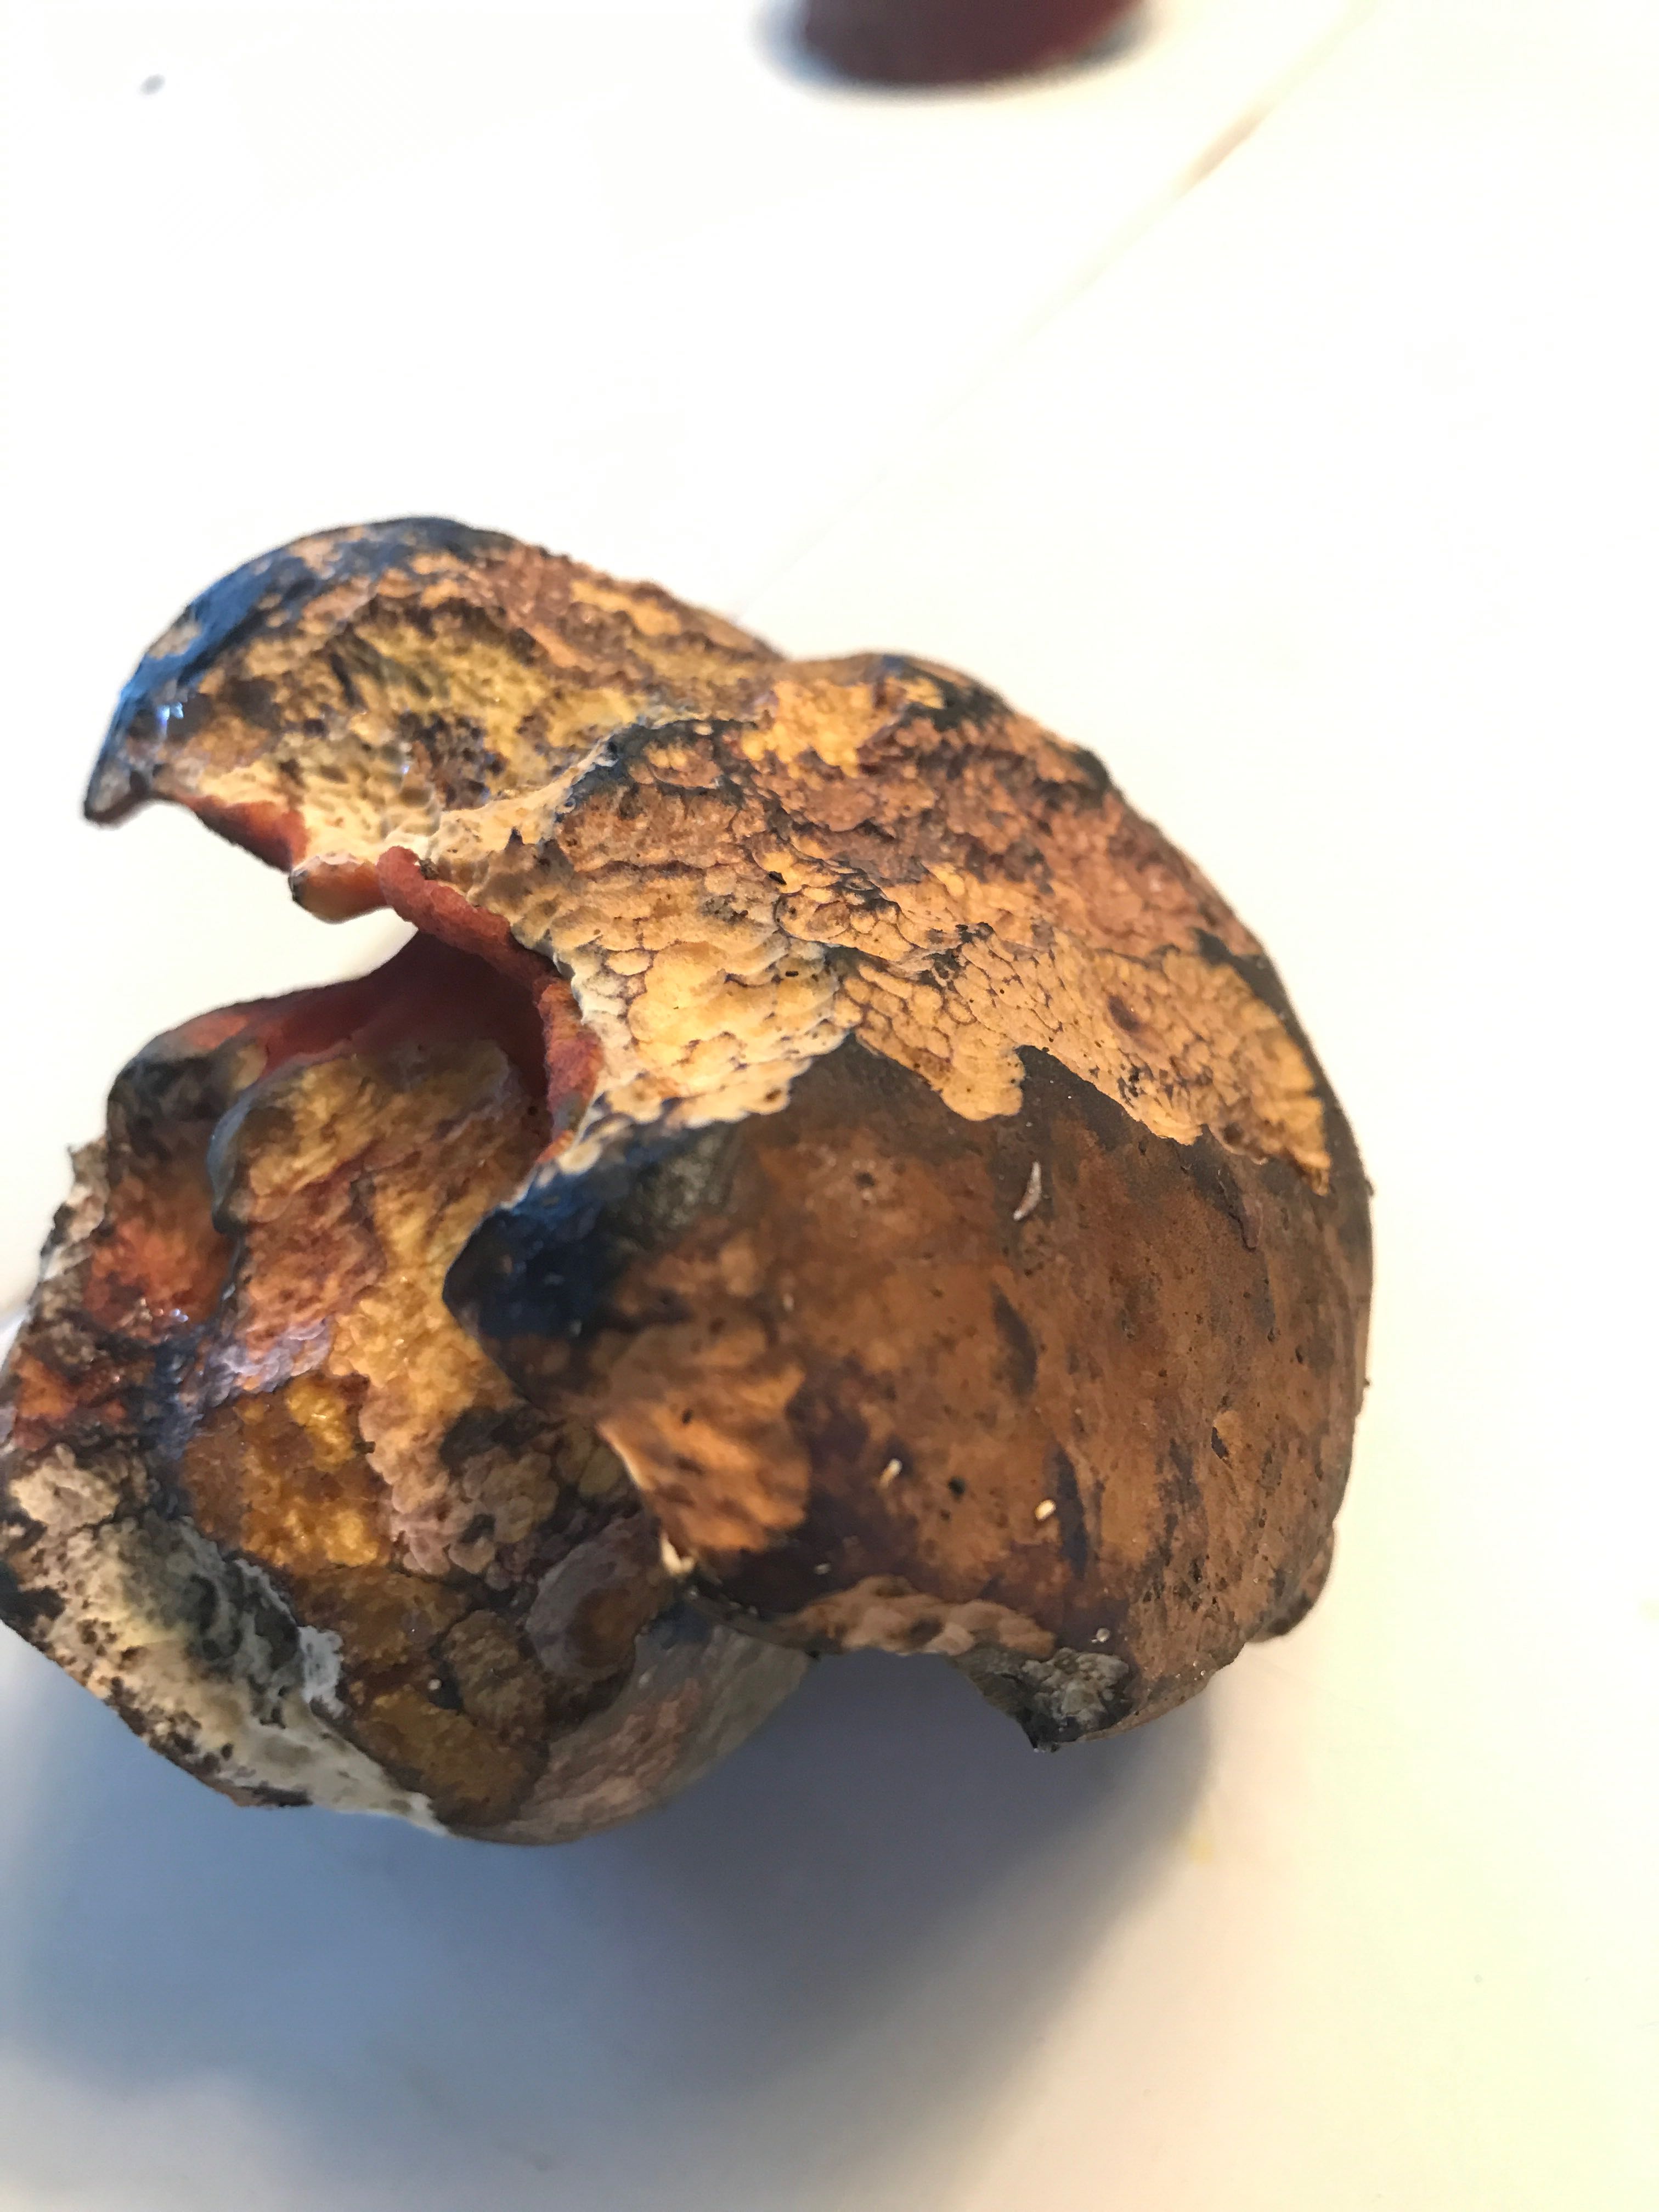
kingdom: Fungi
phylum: Basidiomycota
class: Agaricomycetes
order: Boletales
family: Boletaceae
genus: Neoboletus
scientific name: Neoboletus erythropus
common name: punktstokket indigorørhat
